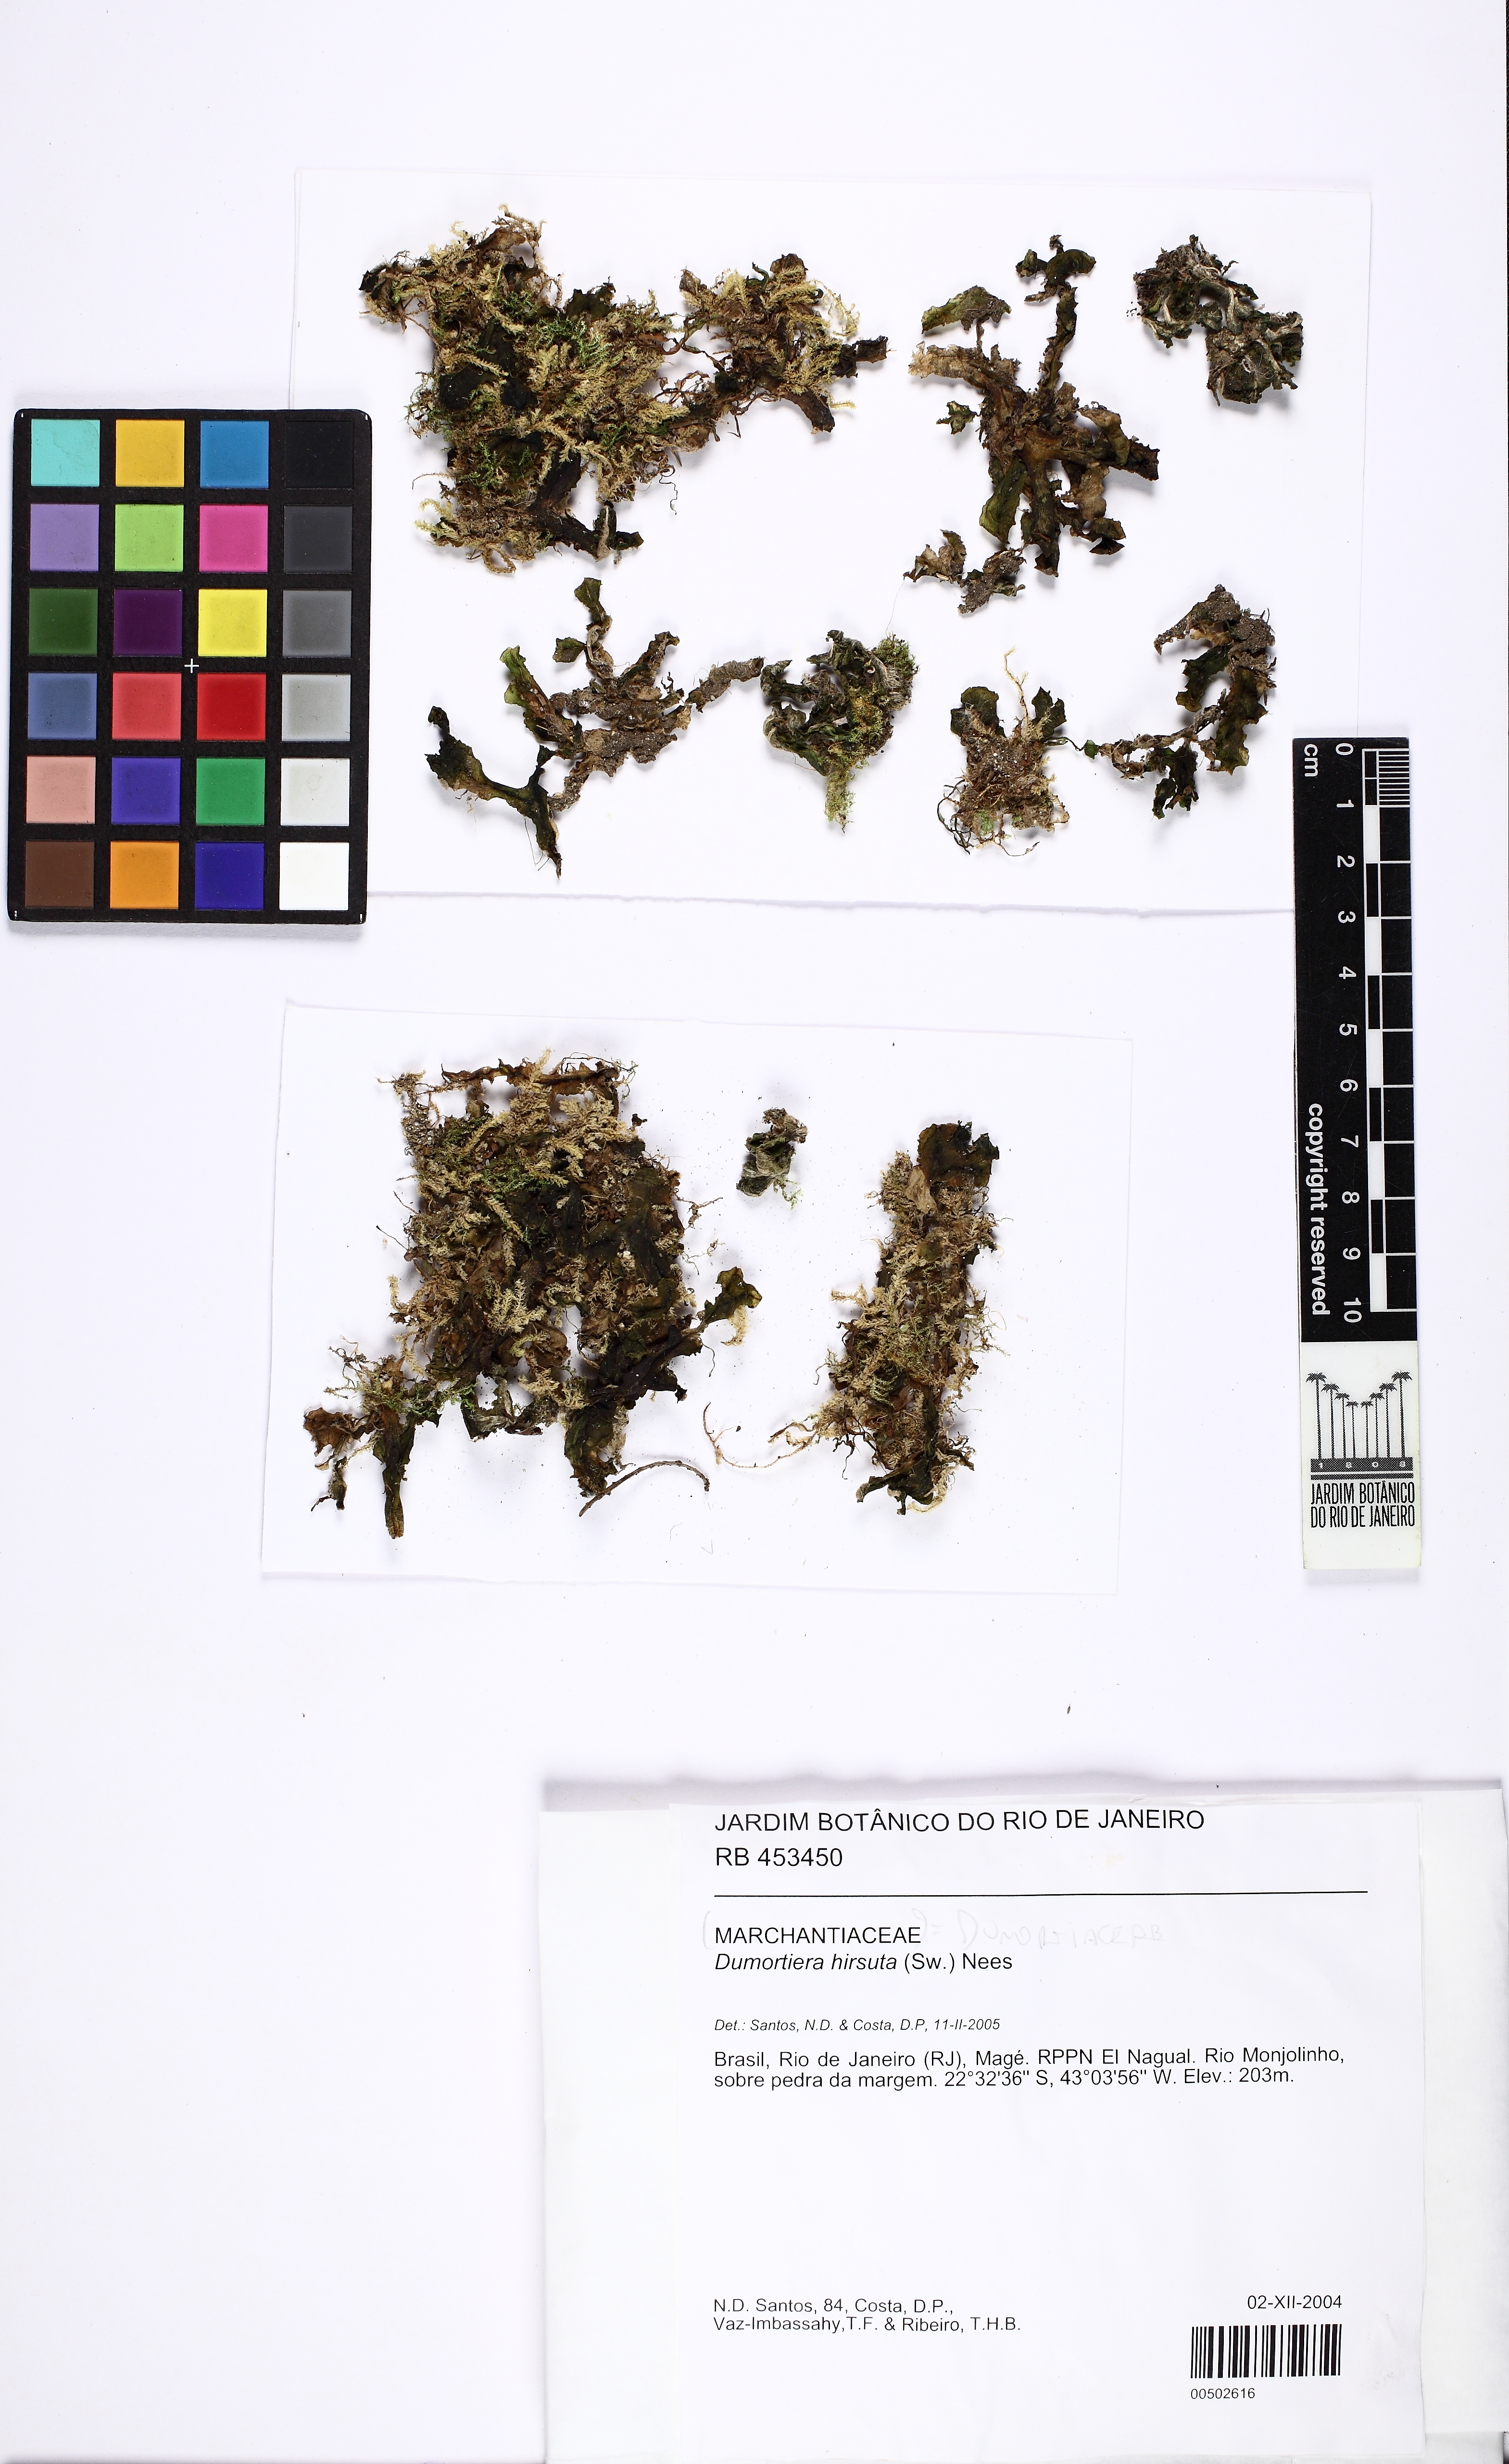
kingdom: Plantae
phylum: Marchantiophyta
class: Marchantiopsida
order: Marchantiales
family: Dumortieraceae
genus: Dumortiera
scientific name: Dumortiera hirsuta
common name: Dumortier's liverwort
